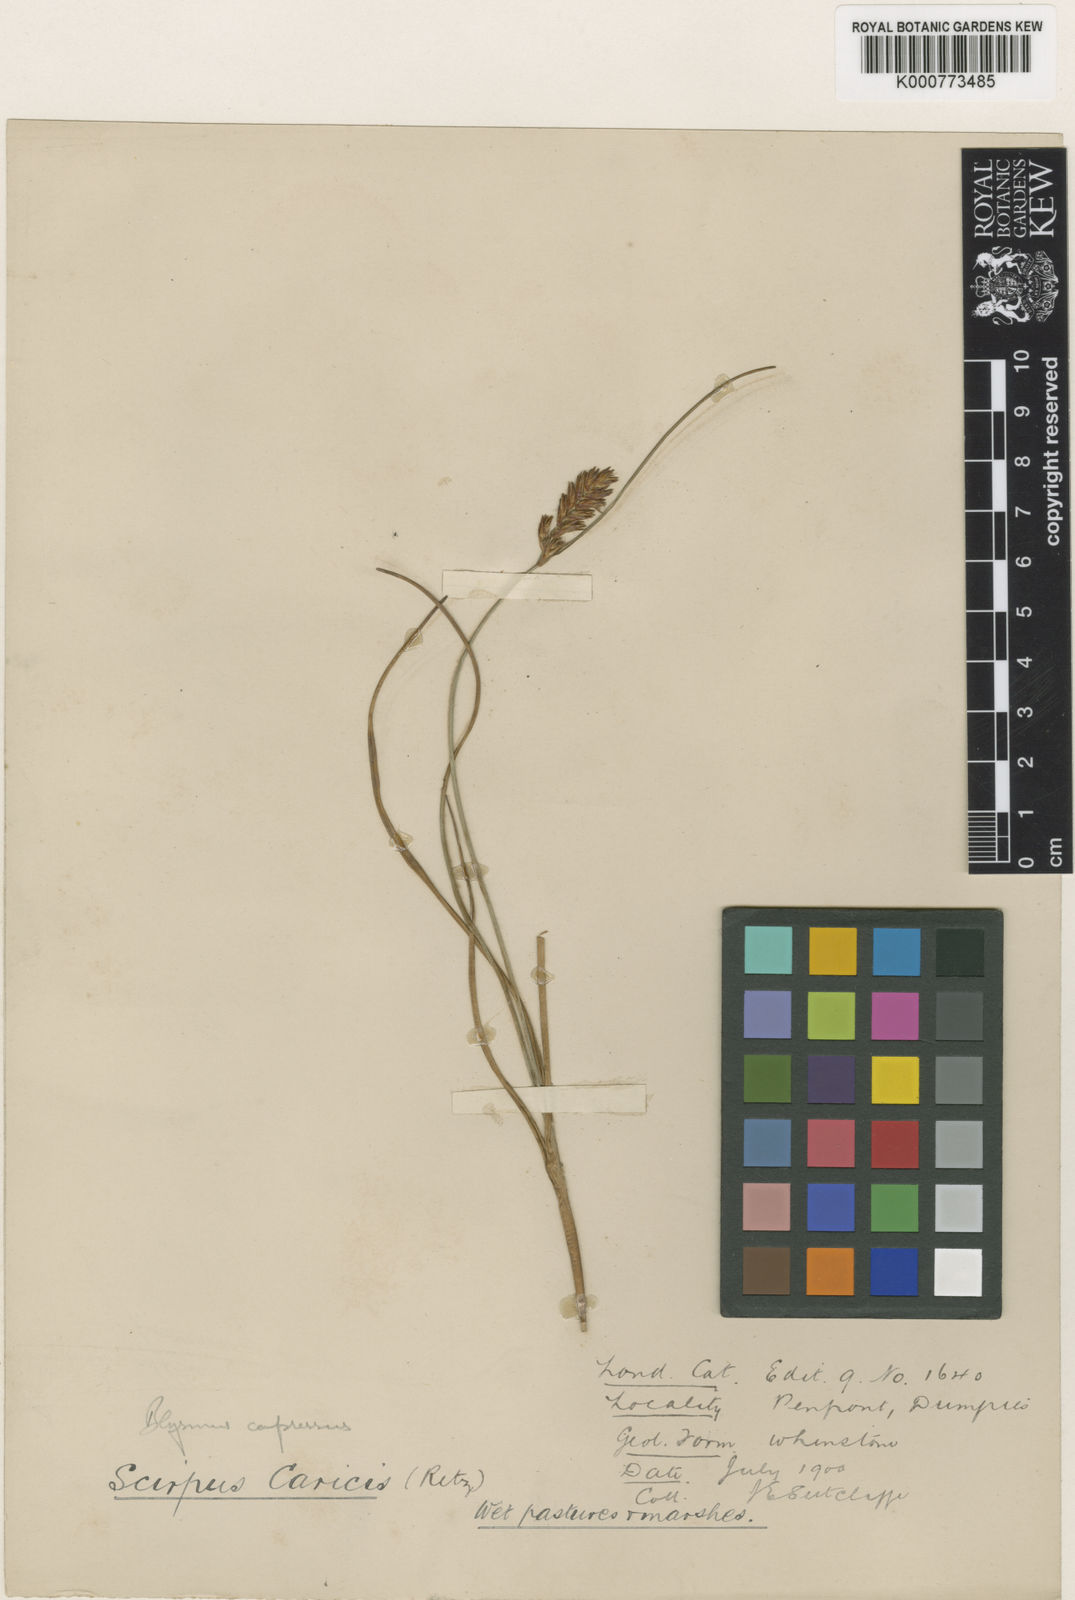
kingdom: Plantae
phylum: Tracheophyta
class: Liliopsida
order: Poales
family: Cyperaceae
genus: Blysmus
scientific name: Blysmus compressus
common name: Flat-sedge
